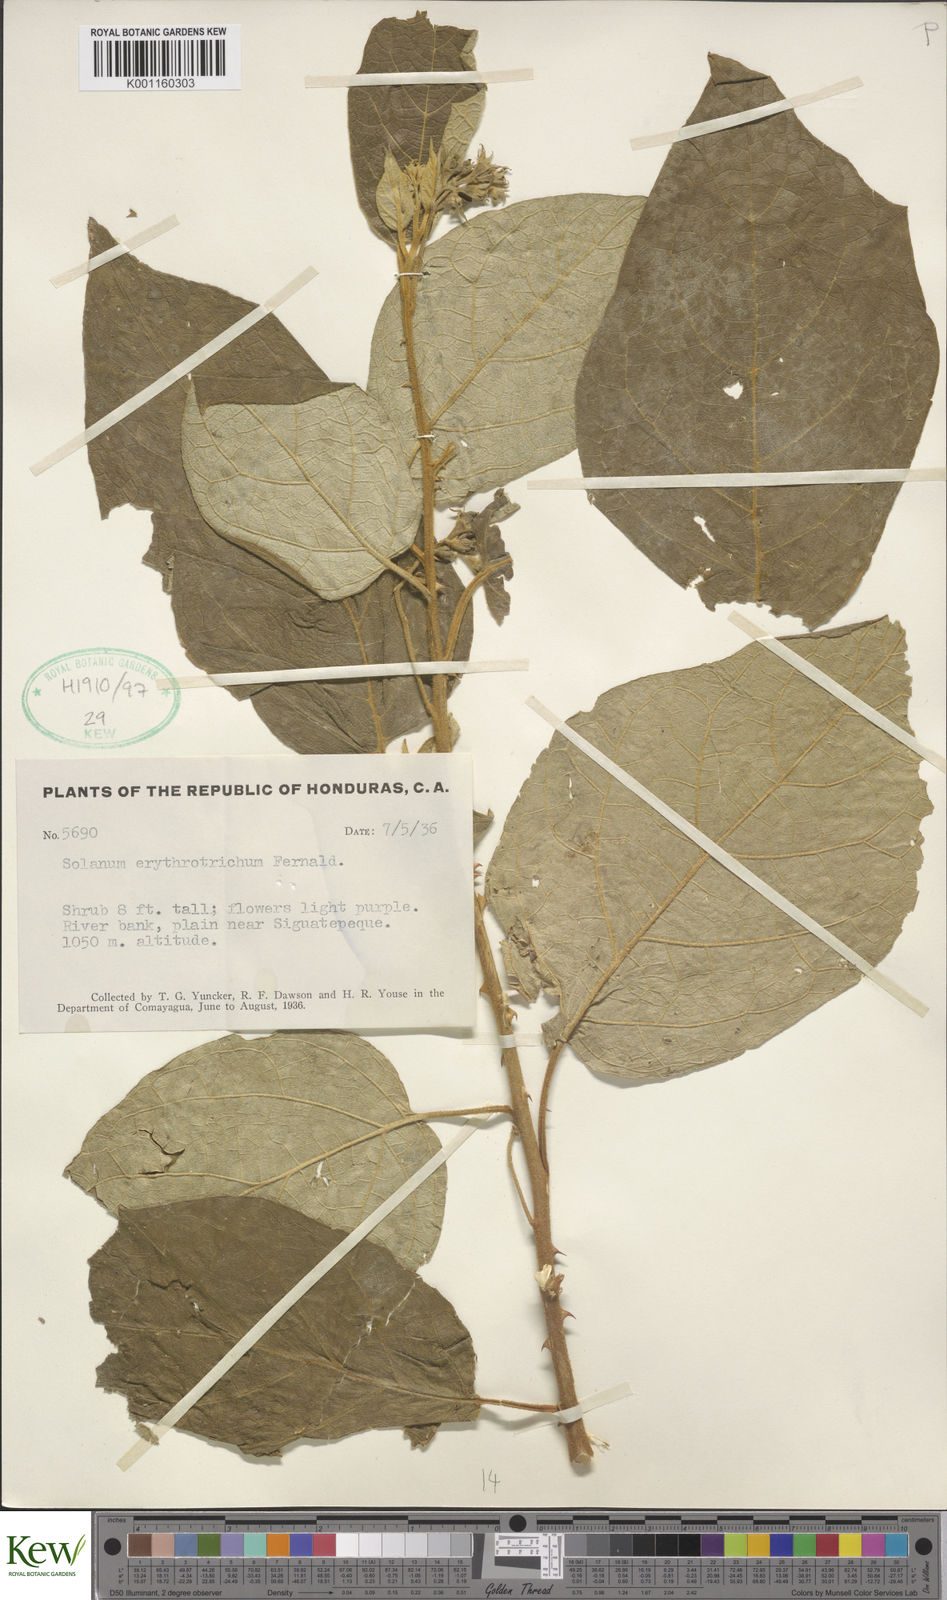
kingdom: Plantae
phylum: Tracheophyta
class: Magnoliopsida
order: Solanales
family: Solanaceae
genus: Solanum
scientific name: Solanum erythrotrichum
